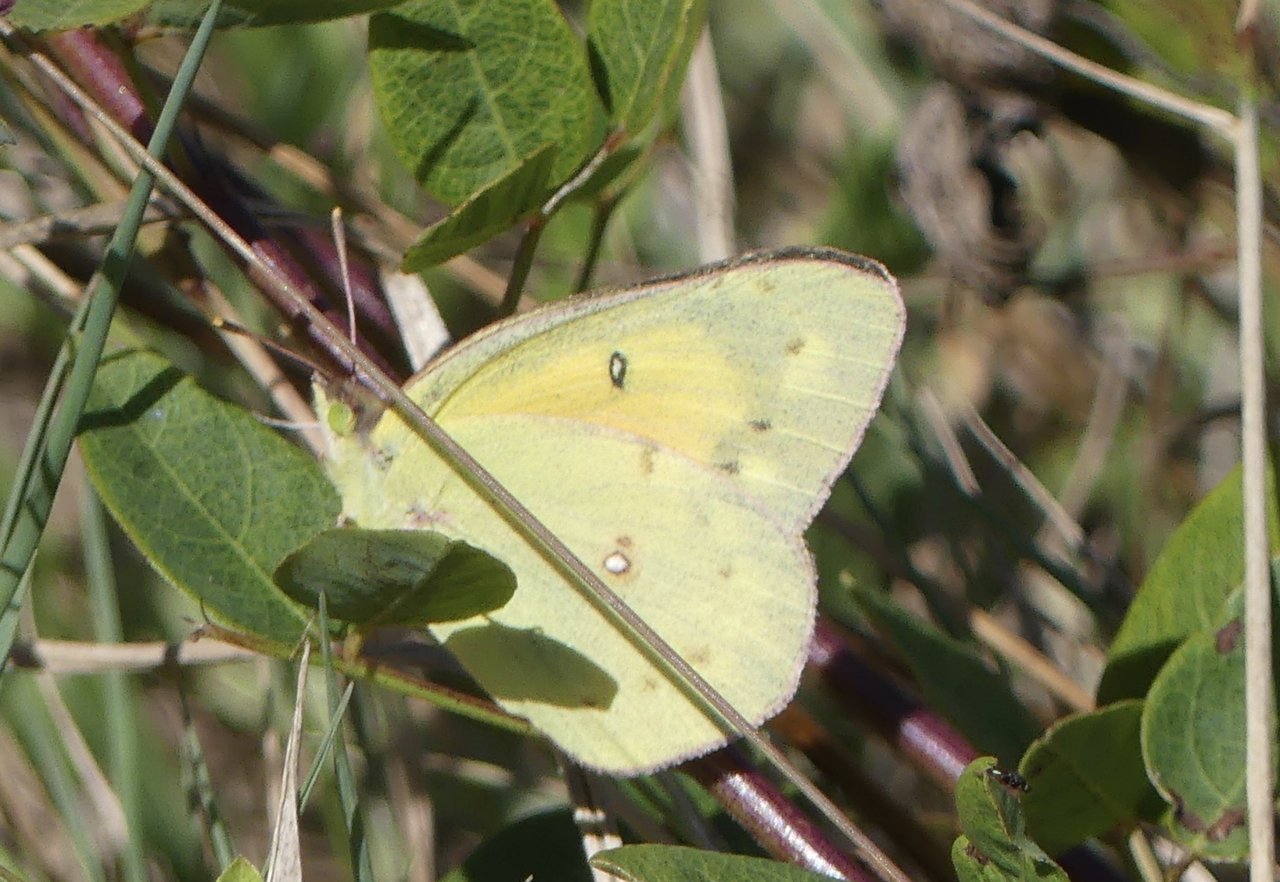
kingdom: Animalia
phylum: Arthropoda
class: Insecta
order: Lepidoptera
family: Pieridae
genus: Colias
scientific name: Colias eurytheme
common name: Orange Sulphur
